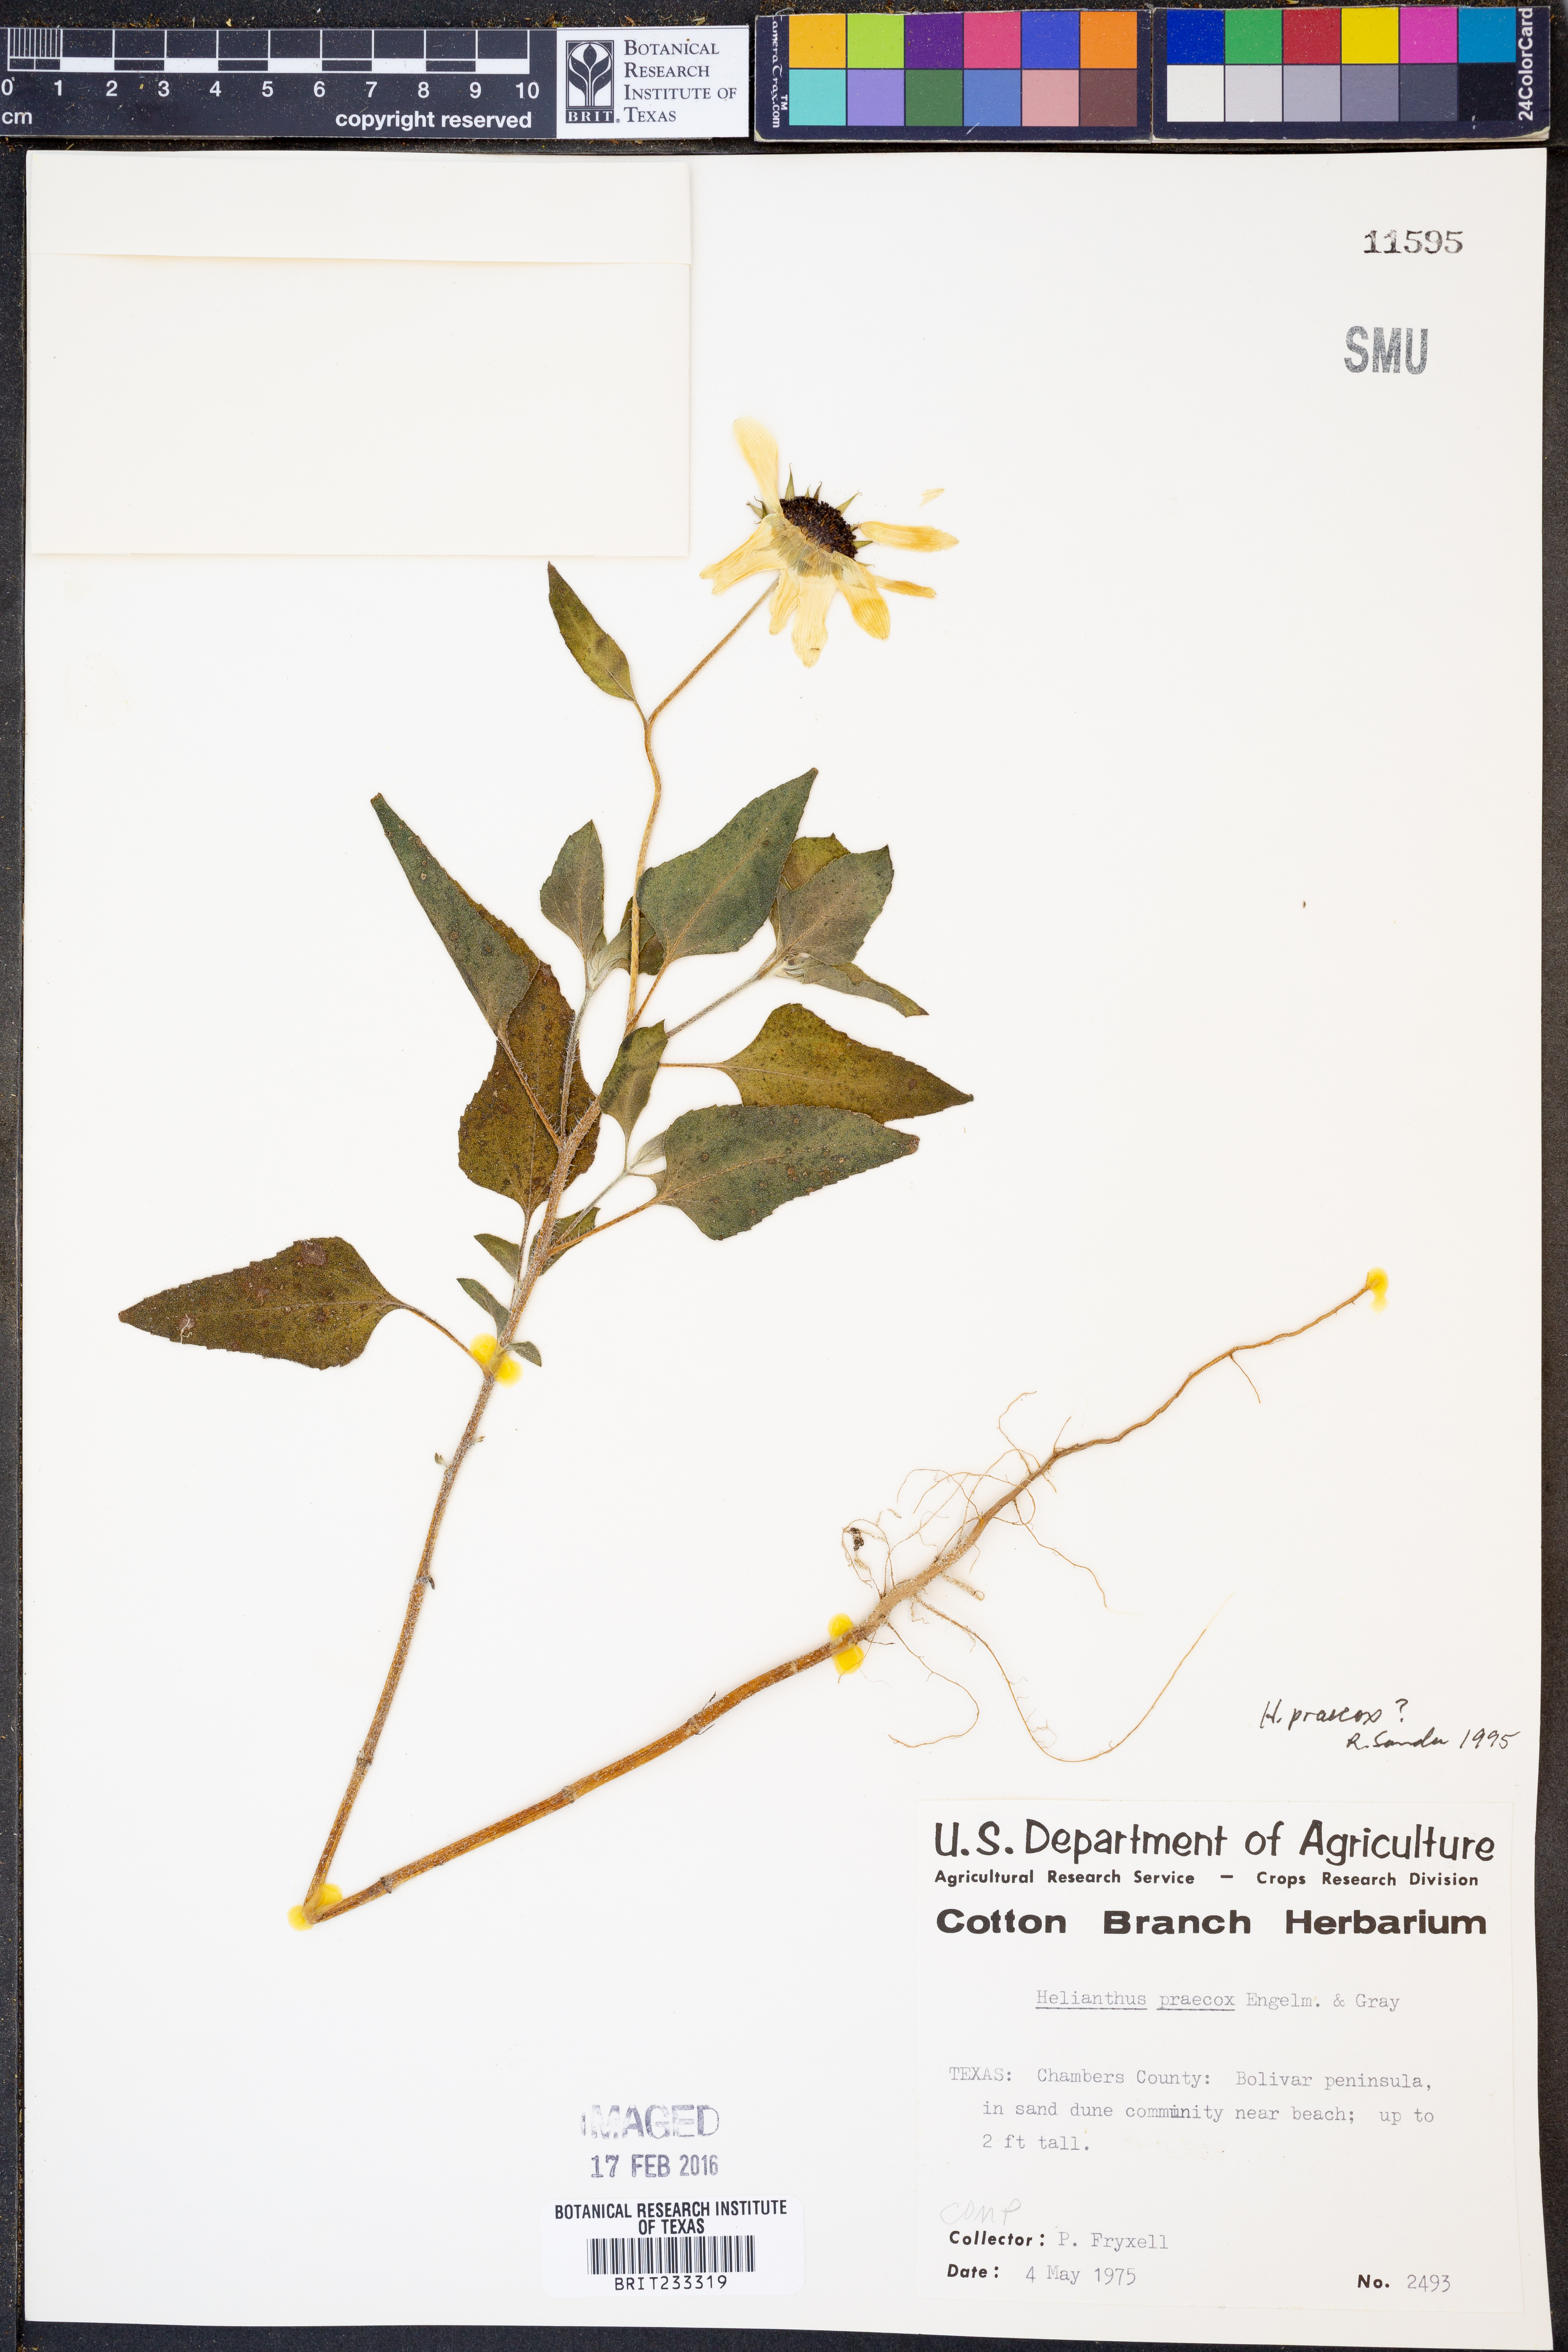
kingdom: Plantae
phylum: Tracheophyta
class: Magnoliopsida
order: Asterales
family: Asteraceae
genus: Helianthus
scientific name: Helianthus praecox
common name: Texas sunflower
